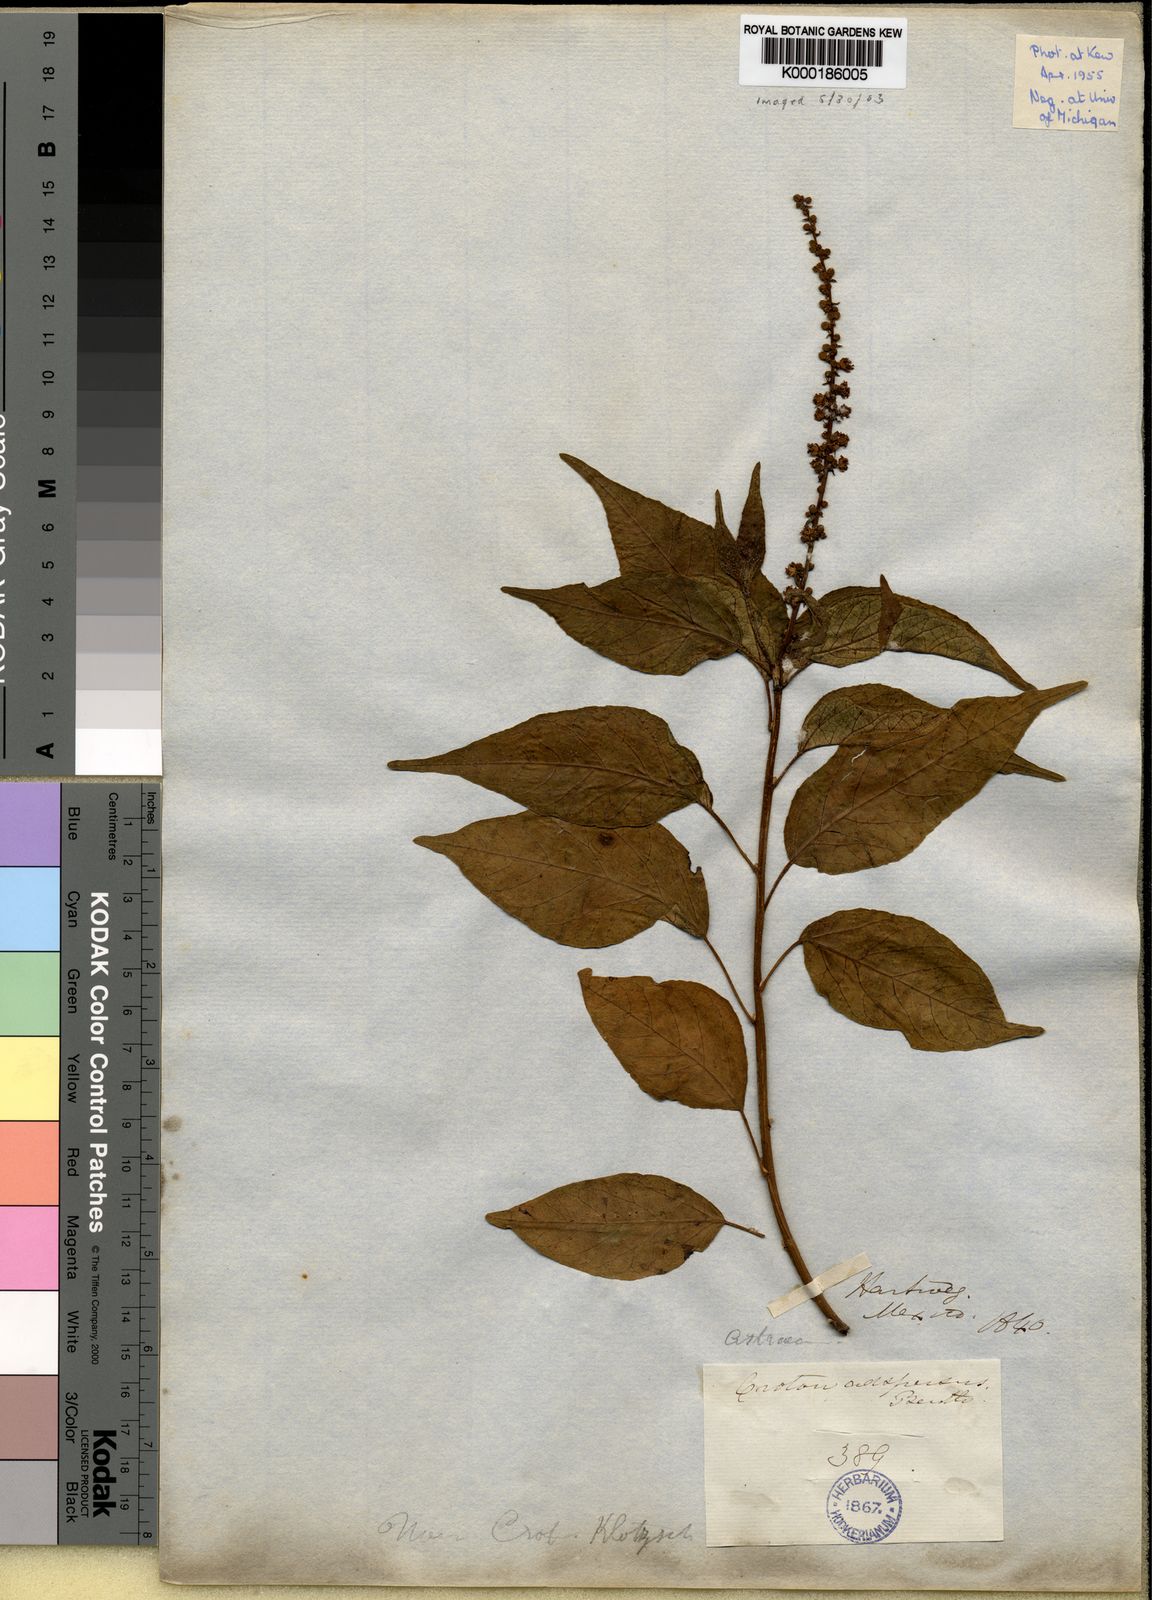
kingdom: Plantae
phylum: Tracheophyta
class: Magnoliopsida
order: Malpighiales
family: Euphorbiaceae
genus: Croton
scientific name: Croton adspersus
